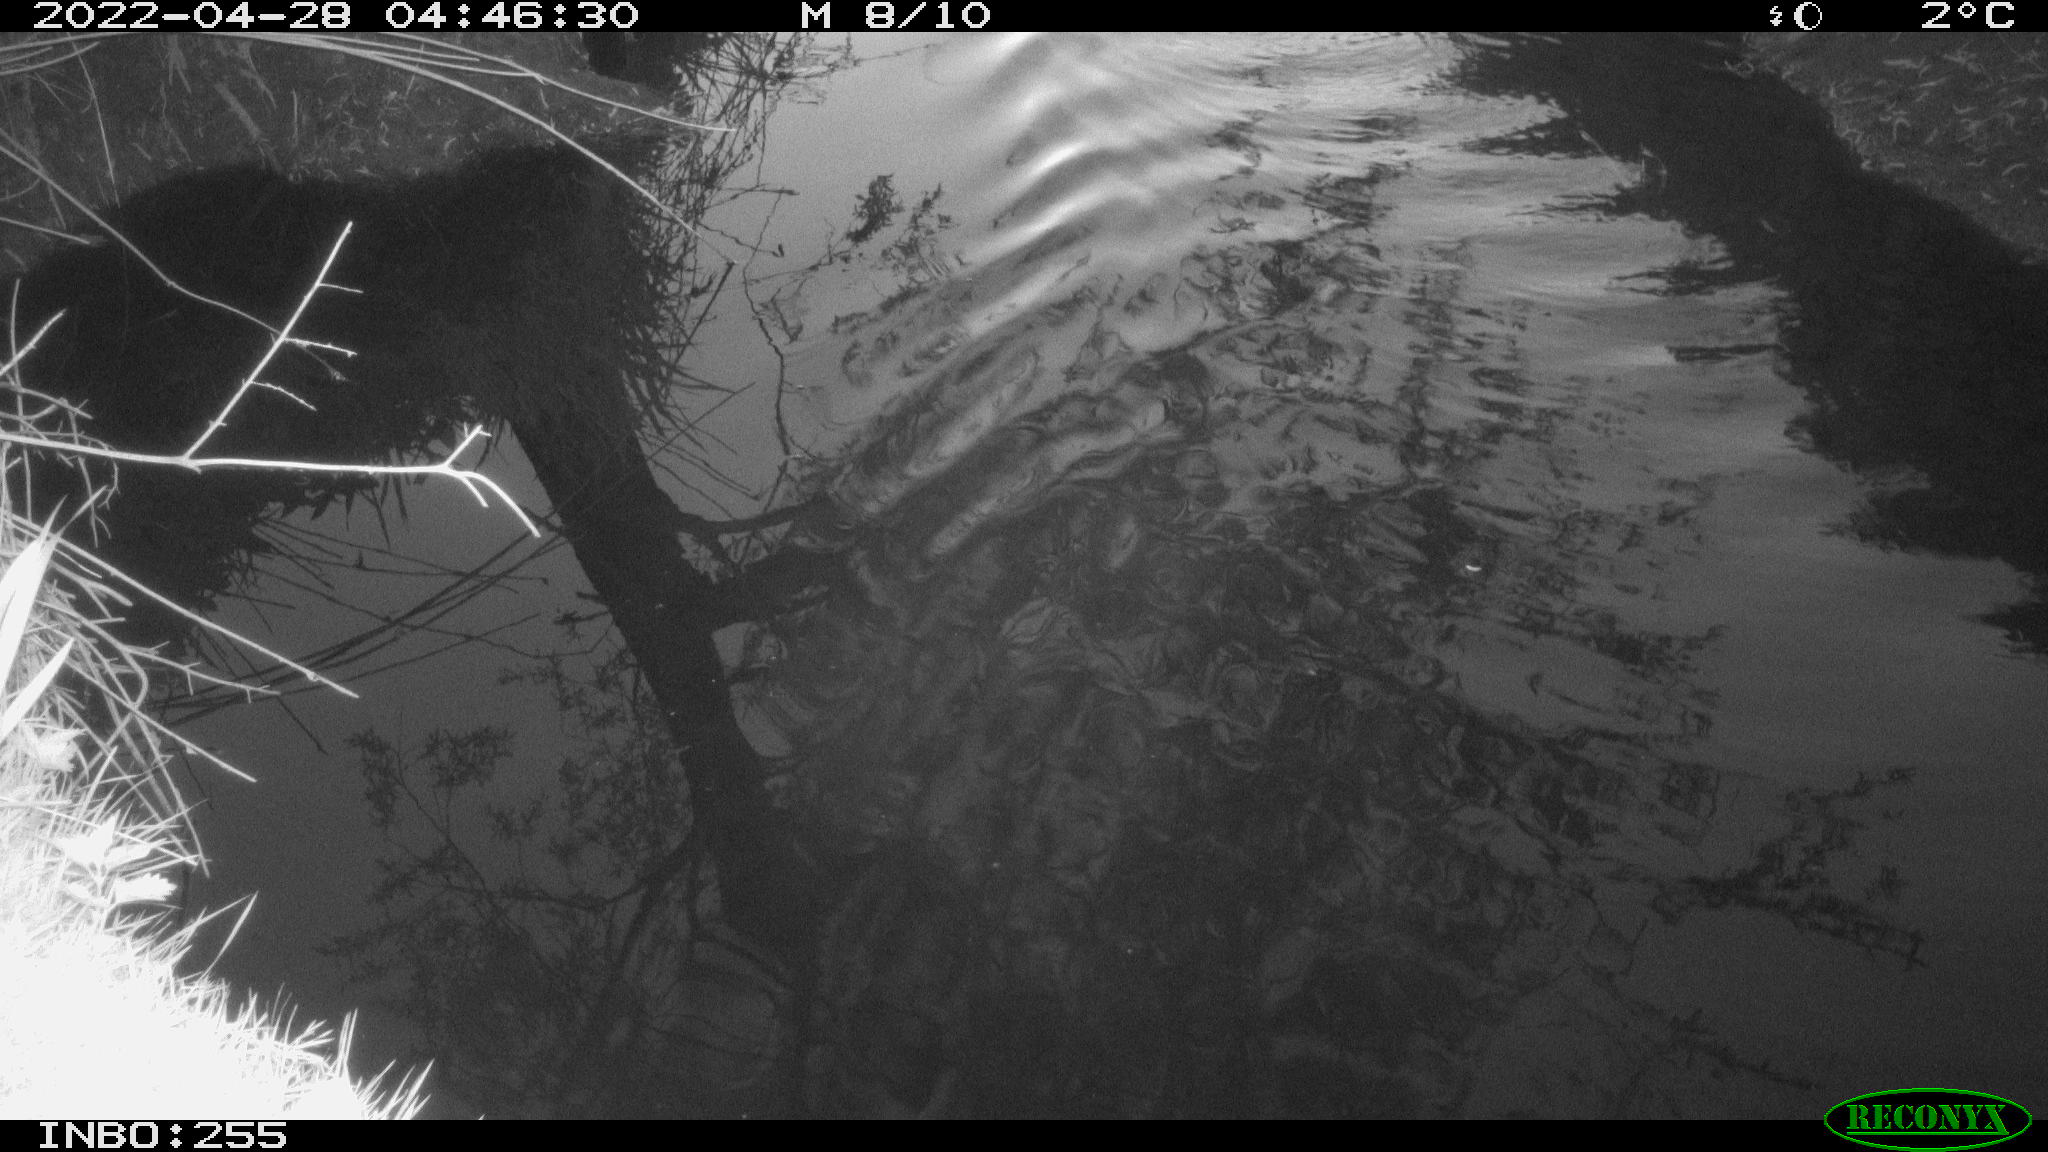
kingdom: Animalia
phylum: Chordata
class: Aves
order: Anseriformes
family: Anatidae
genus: Anas
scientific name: Anas platyrhynchos
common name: Mallard
